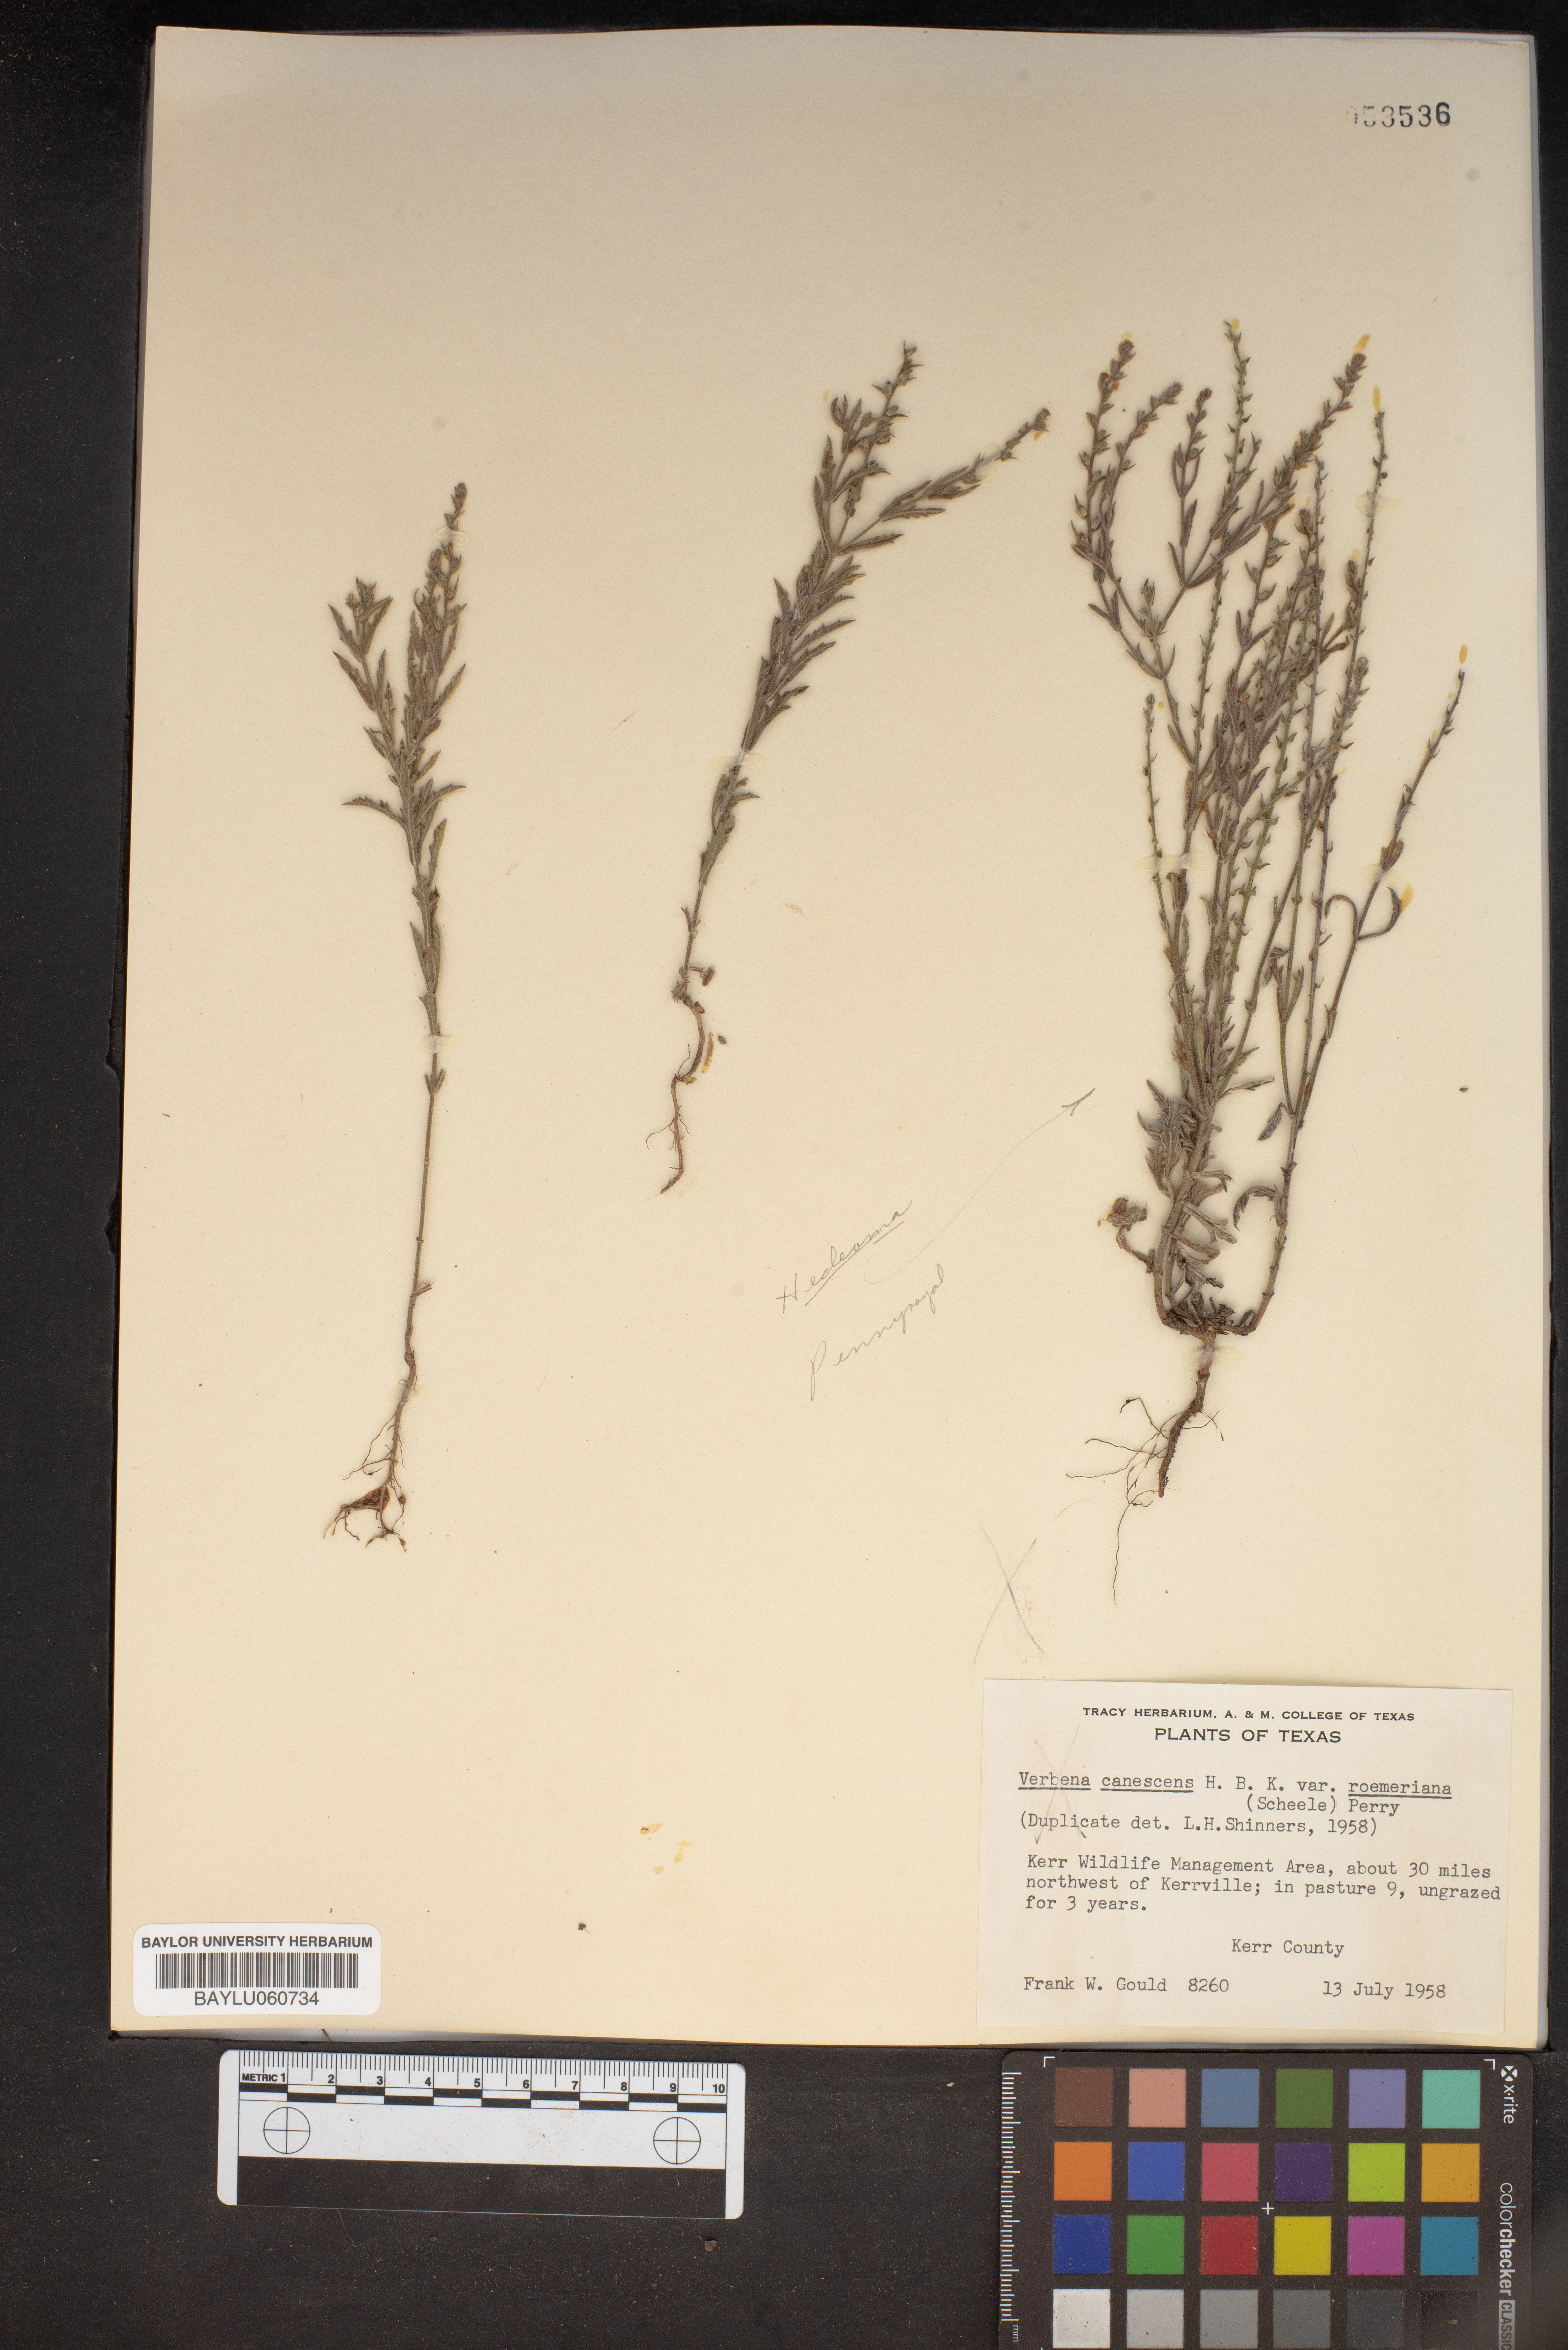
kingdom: Plantae
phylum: Tracheophyta
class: Magnoliopsida
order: Lamiales
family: Verbenaceae
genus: Verbena
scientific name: Verbena canescens
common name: Gray vervain
